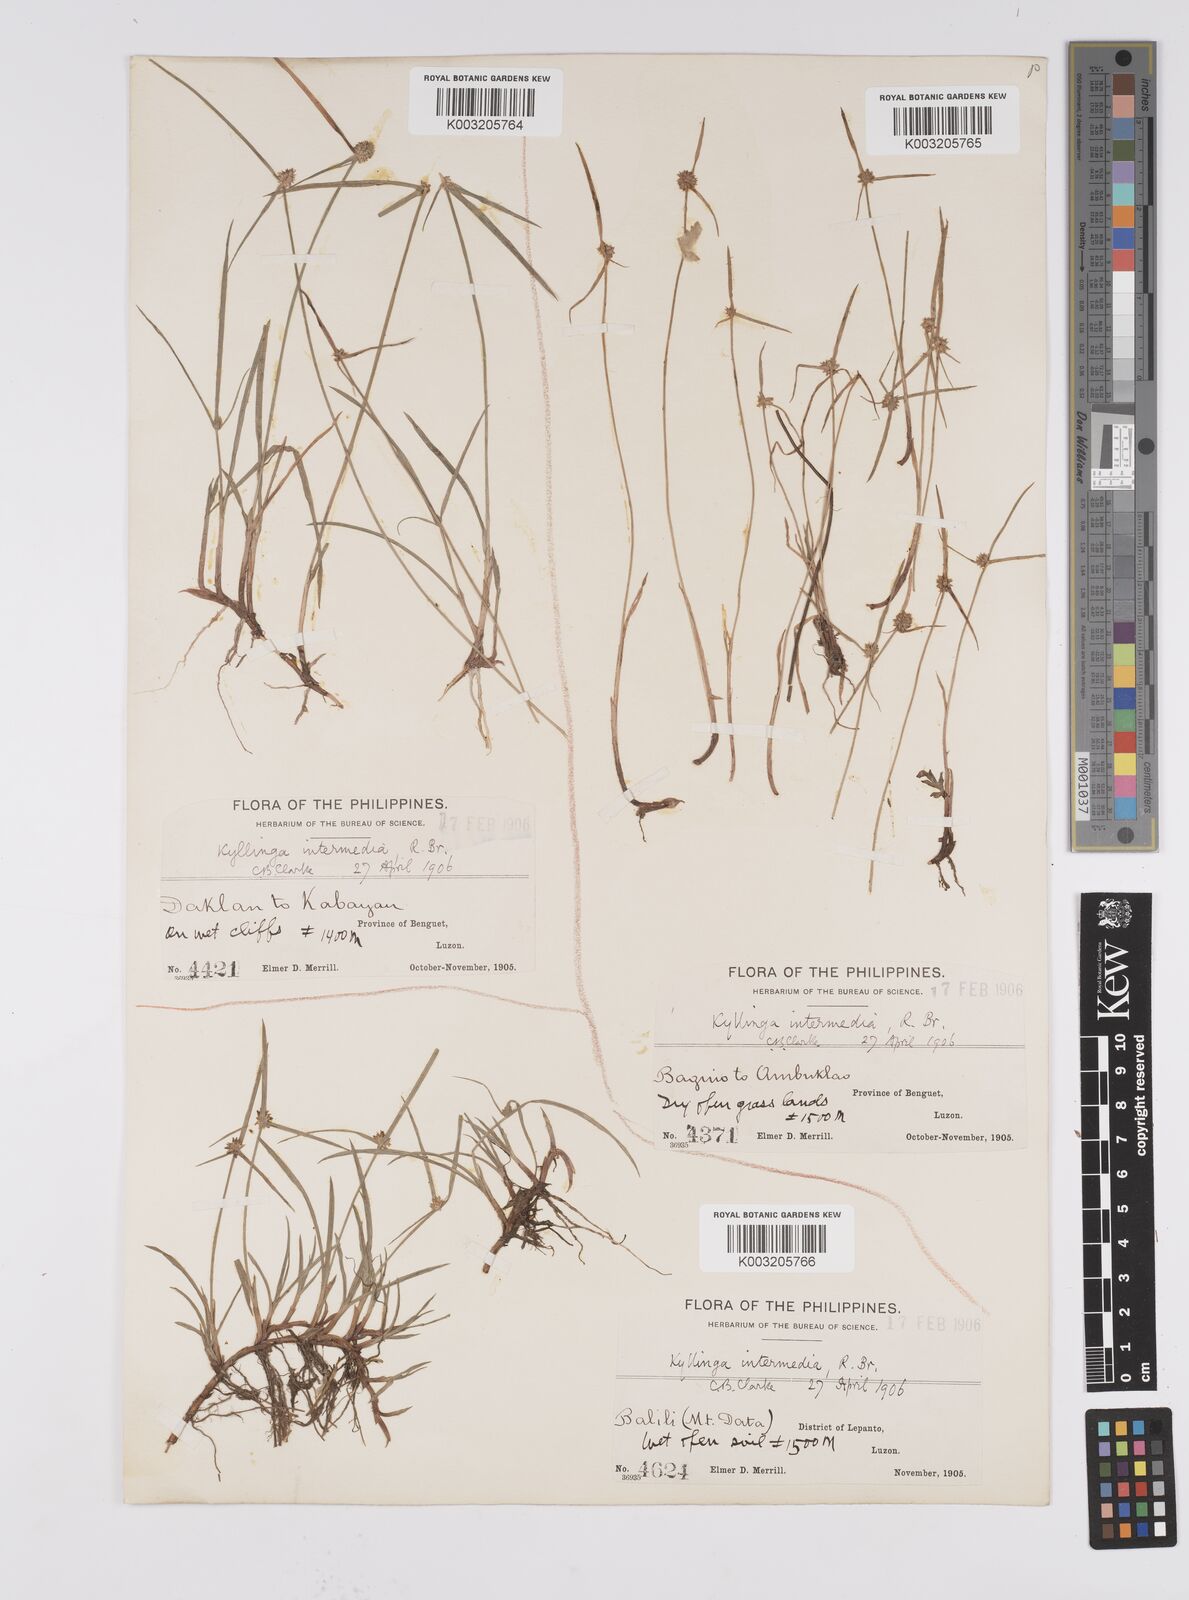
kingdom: Plantae
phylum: Tracheophyta
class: Liliopsida
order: Poales
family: Cyperaceae
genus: Cyperus
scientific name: Cyperus brevifolius
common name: Globe kyllinga
